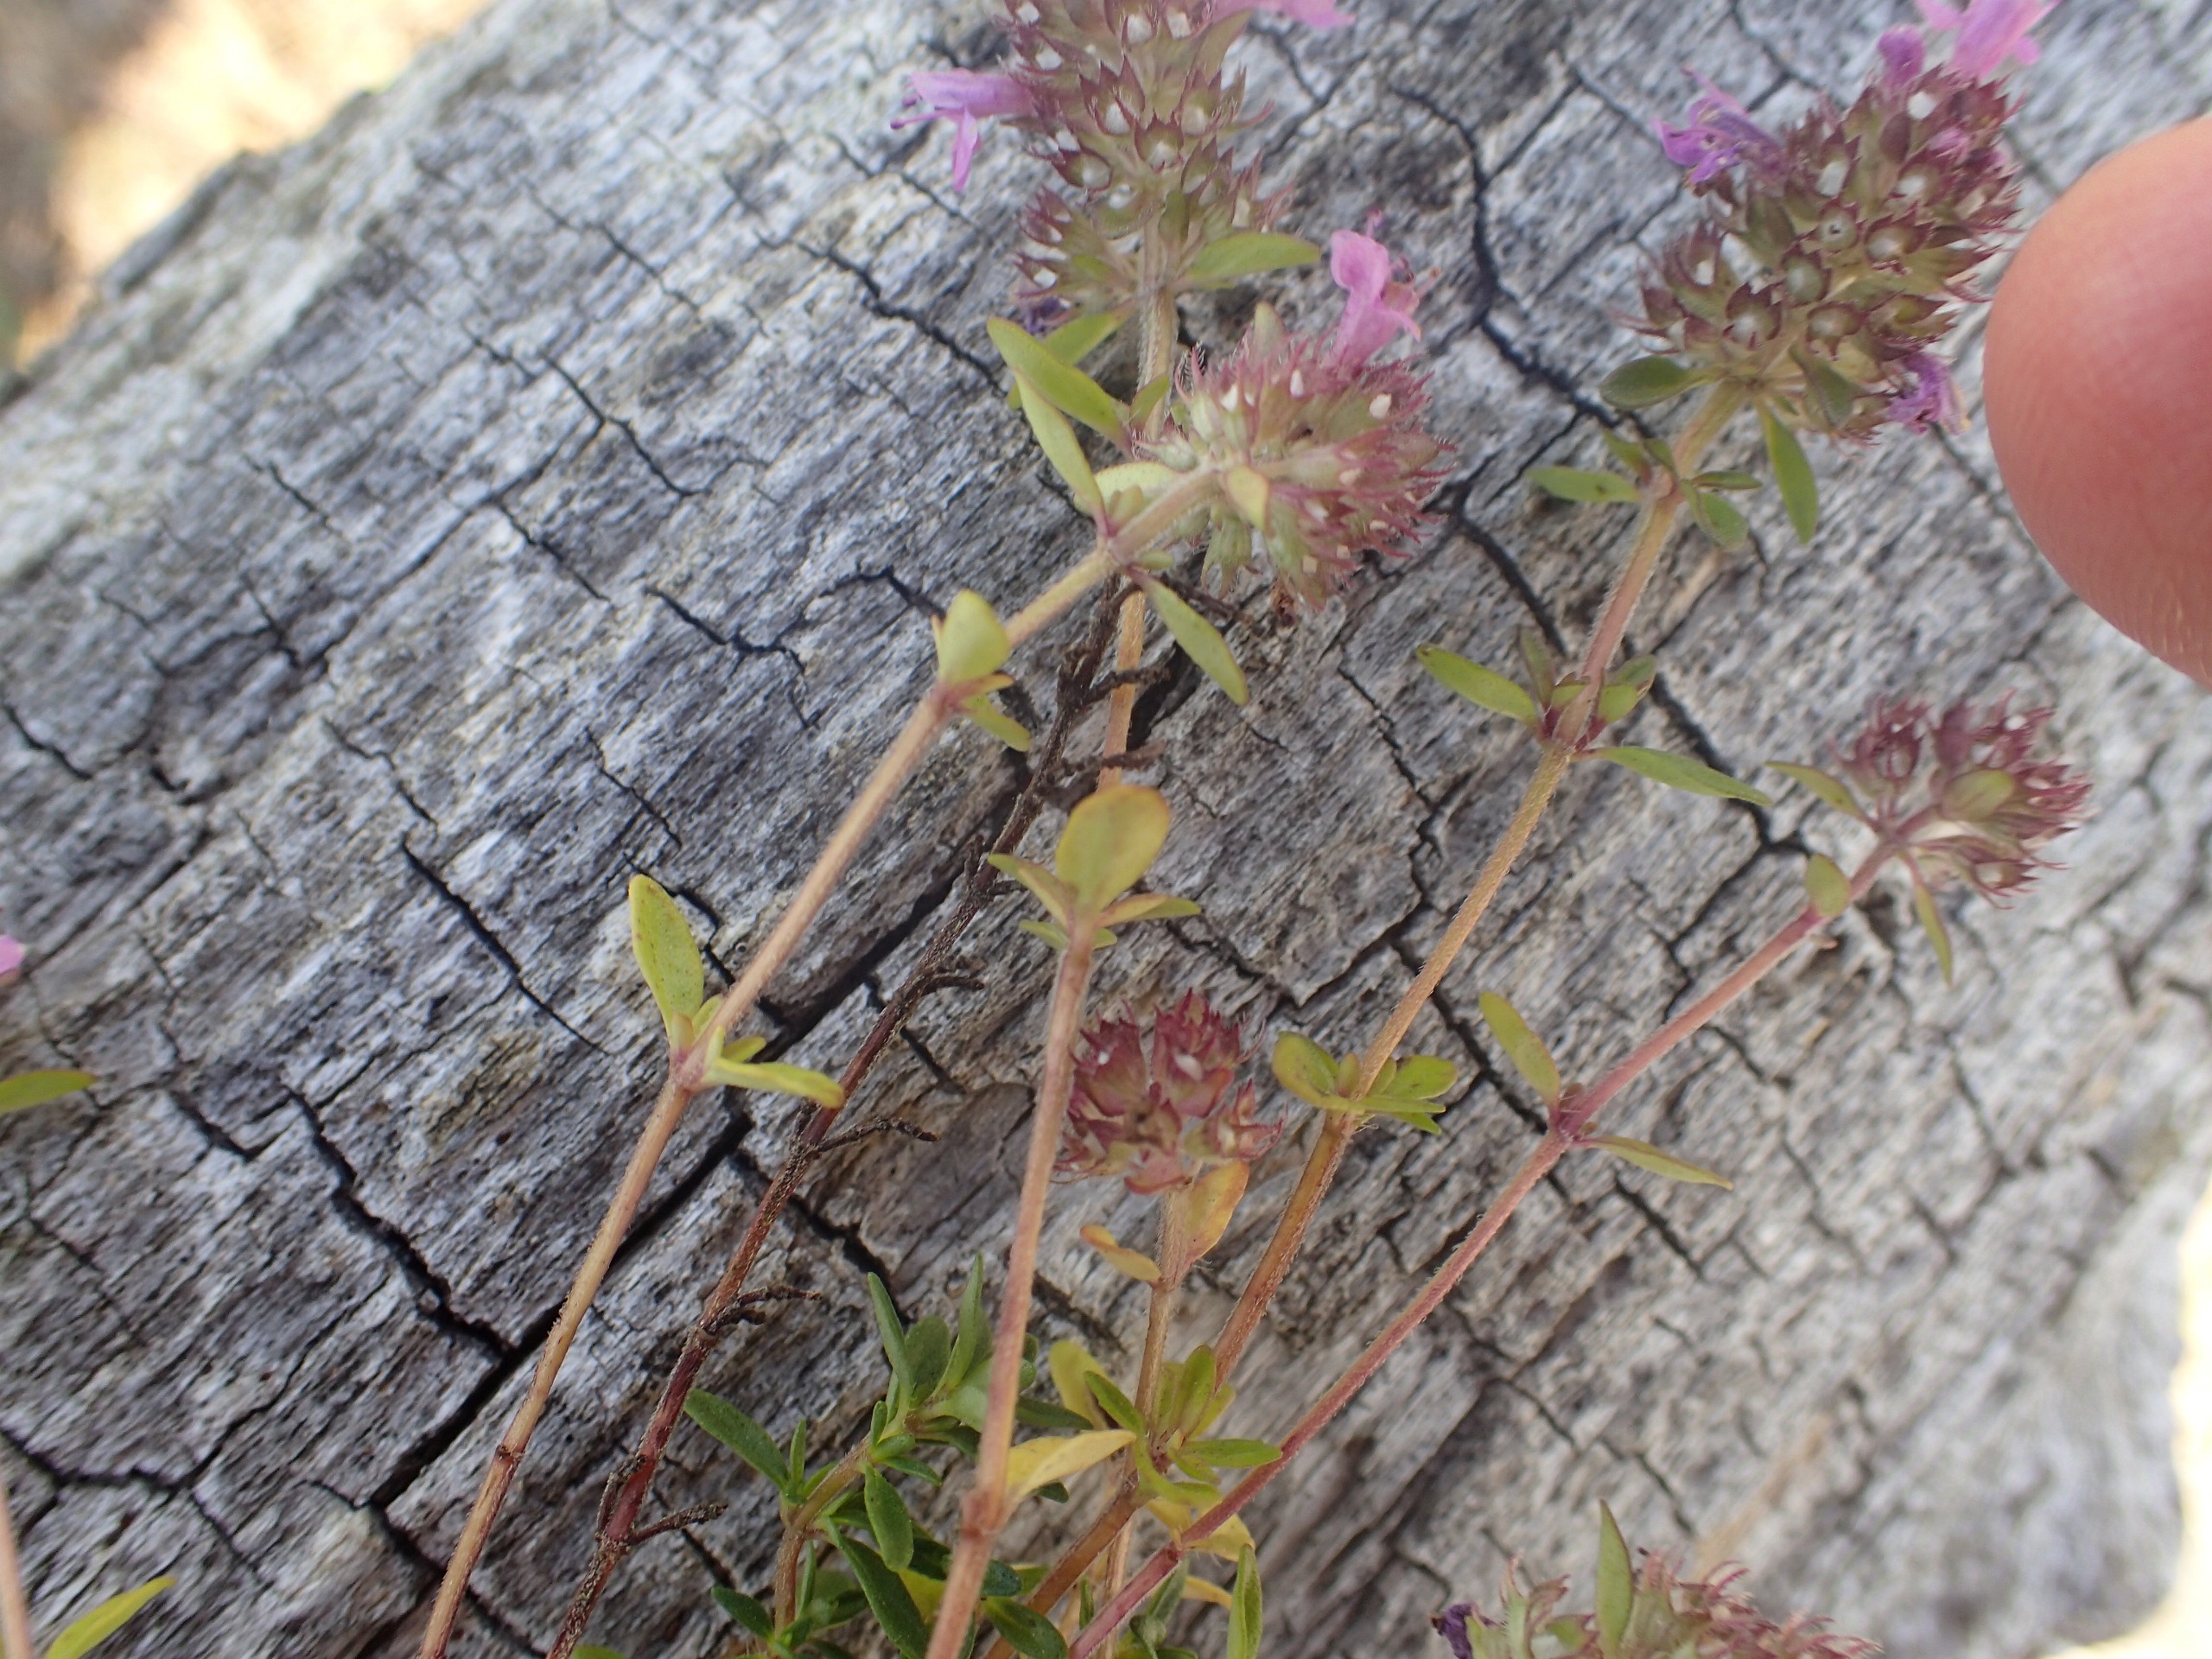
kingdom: Plantae
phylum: Tracheophyta
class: Magnoliopsida
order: Lamiales
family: Lamiaceae
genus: Thymus
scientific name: Thymus serpyllum
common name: Smalbladet timian
